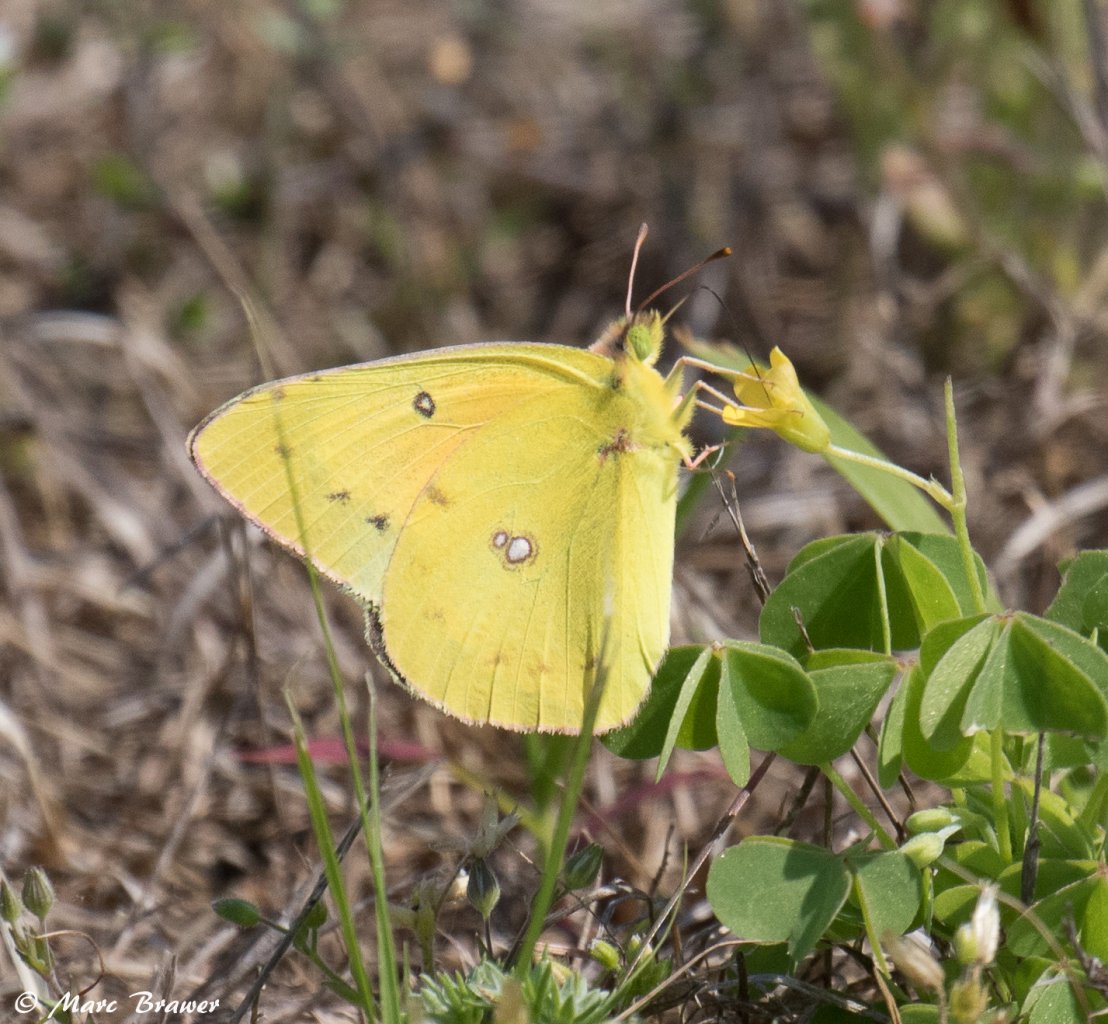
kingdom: Animalia
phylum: Arthropoda
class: Insecta
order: Lepidoptera
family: Pieridae
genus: Colias
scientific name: Colias eurytheme
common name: Orange Sulphur
